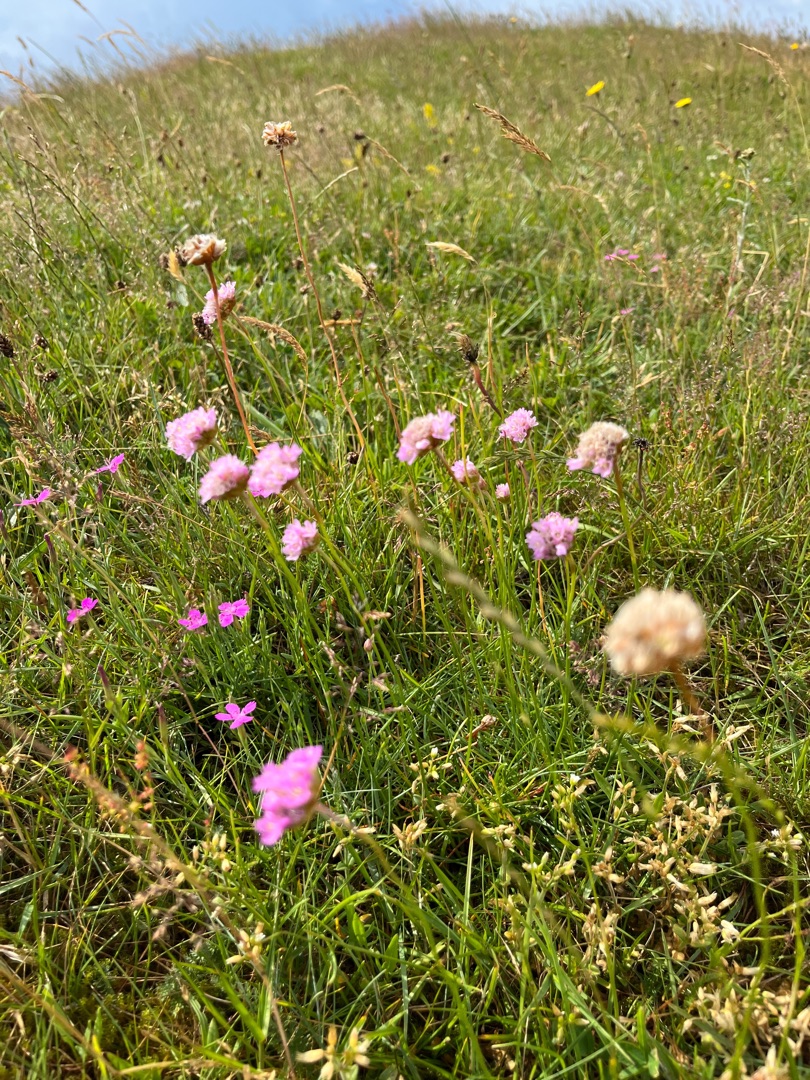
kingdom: Plantae
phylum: Tracheophyta
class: Magnoliopsida
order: Caryophyllales
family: Plumbaginaceae
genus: Armeria
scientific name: Armeria maritima
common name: Engelskgræs
